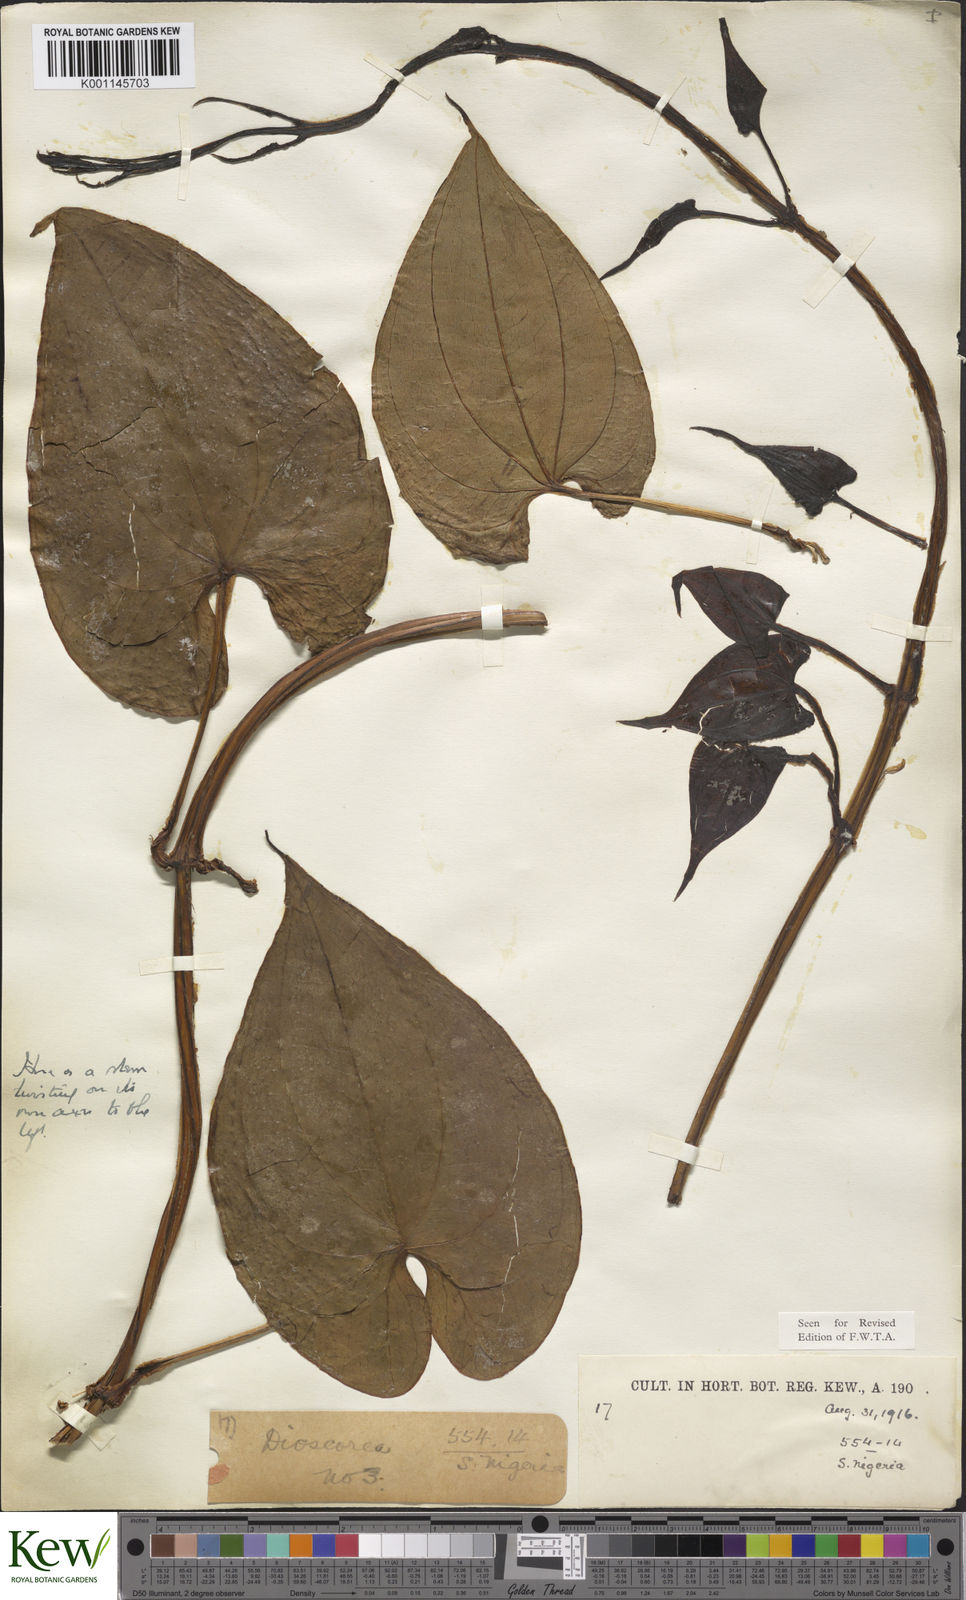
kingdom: Plantae
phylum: Tracheophyta
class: Liliopsida
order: Dioscoreales
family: Dioscoreaceae
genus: Dioscorea
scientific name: Dioscorea alata
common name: Water yam
